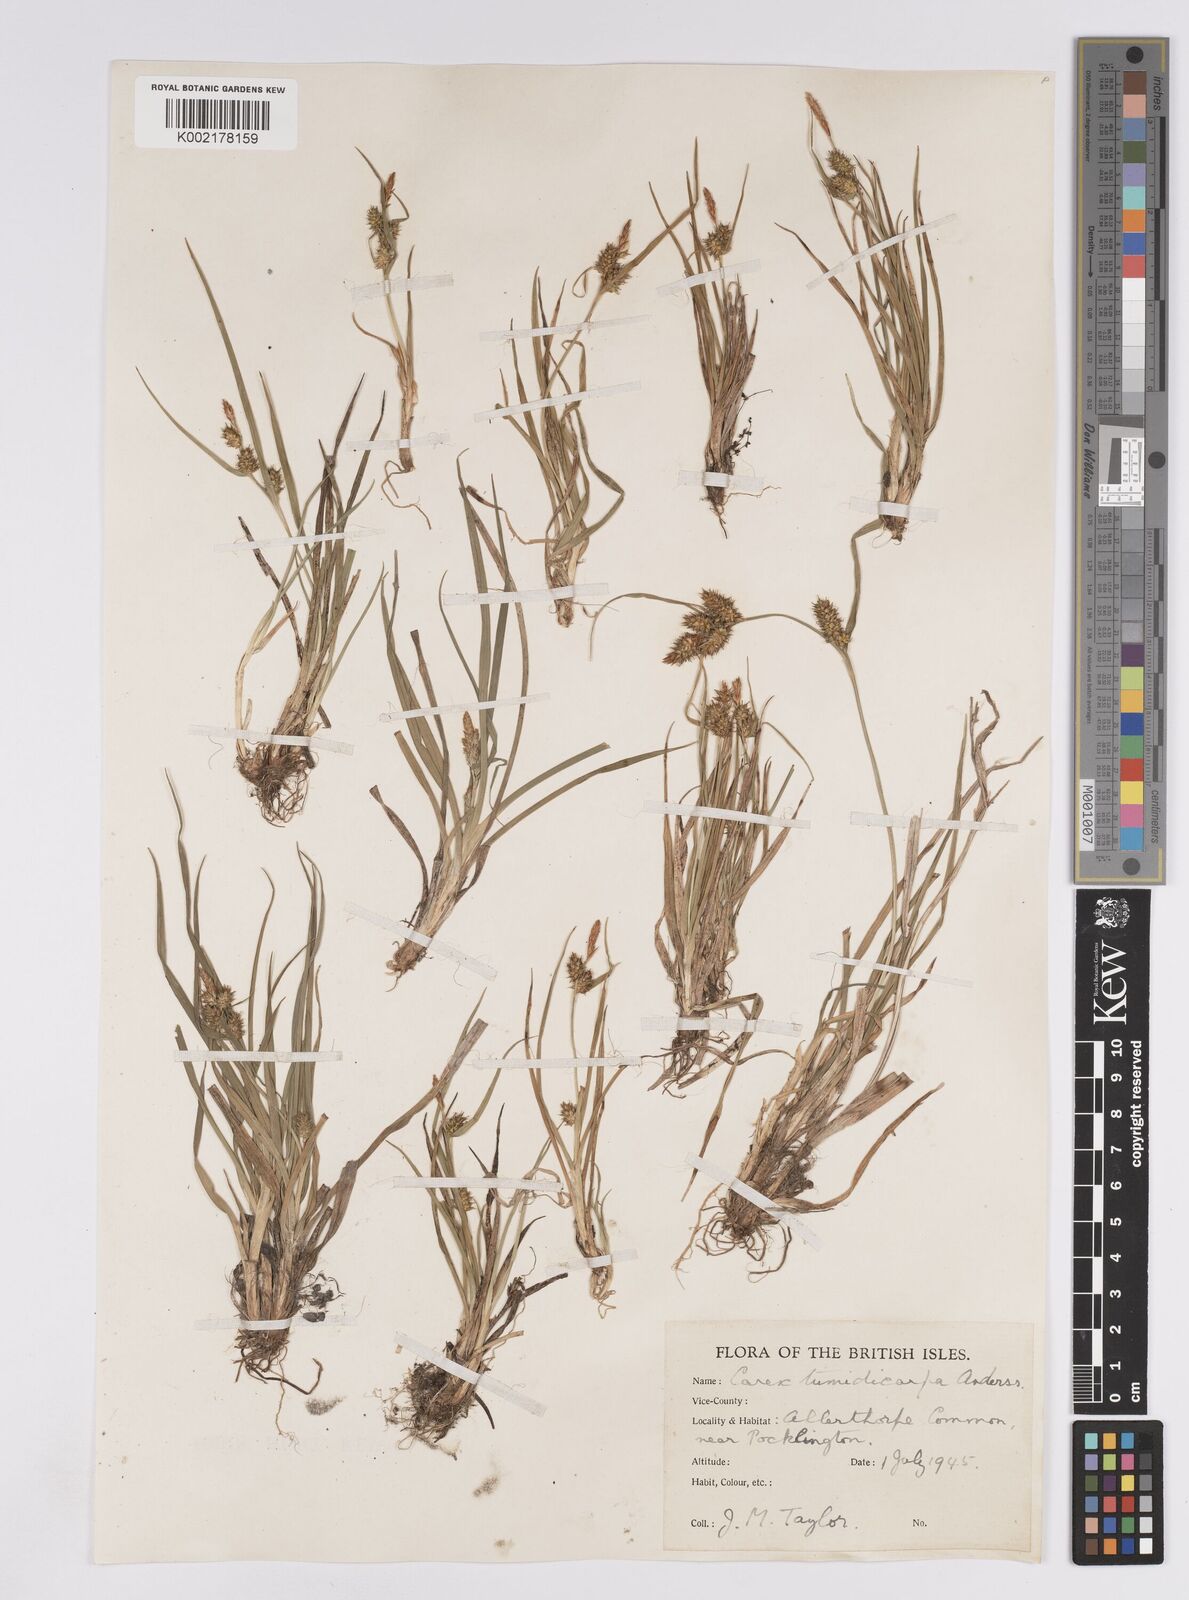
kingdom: Plantae
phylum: Tracheophyta
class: Liliopsida
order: Poales
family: Cyperaceae
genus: Carex
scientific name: Carex demissa
